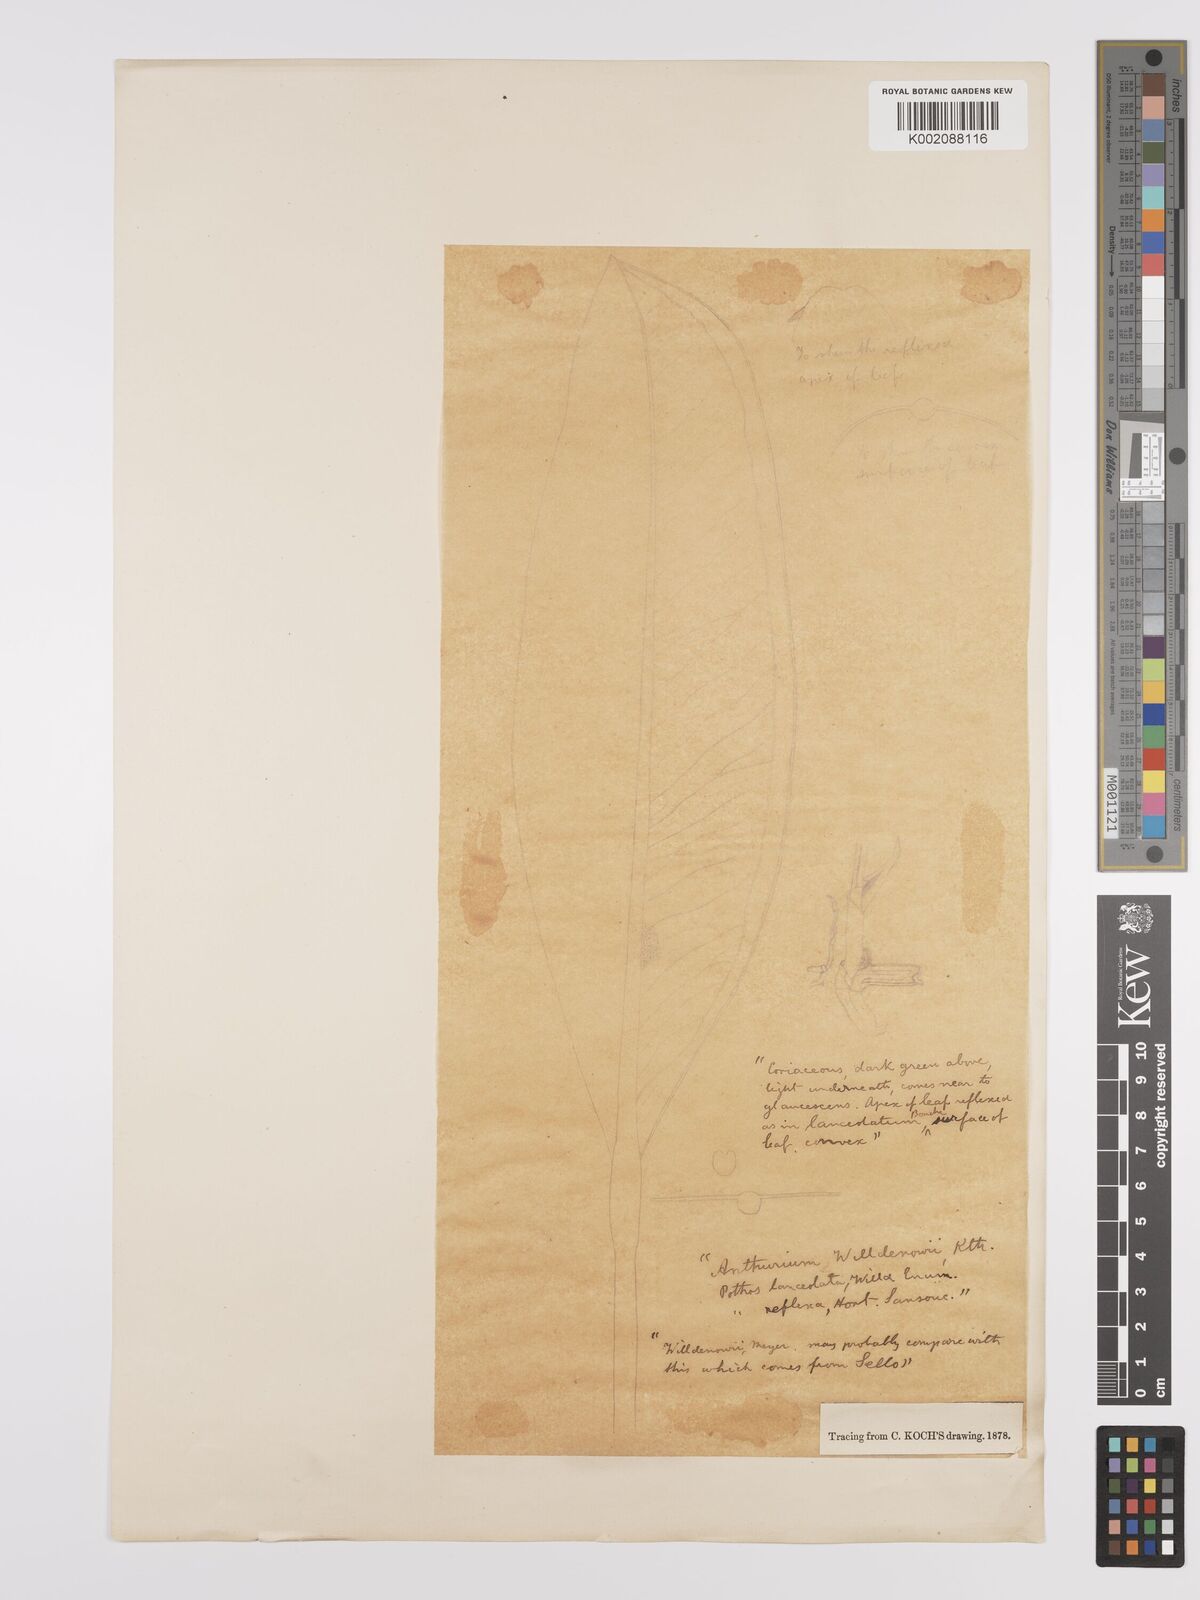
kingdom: Plantae
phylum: Tracheophyta
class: Liliopsida
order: Alismatales
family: Araceae
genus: Anthurium
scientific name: Anthurium willdenowii
